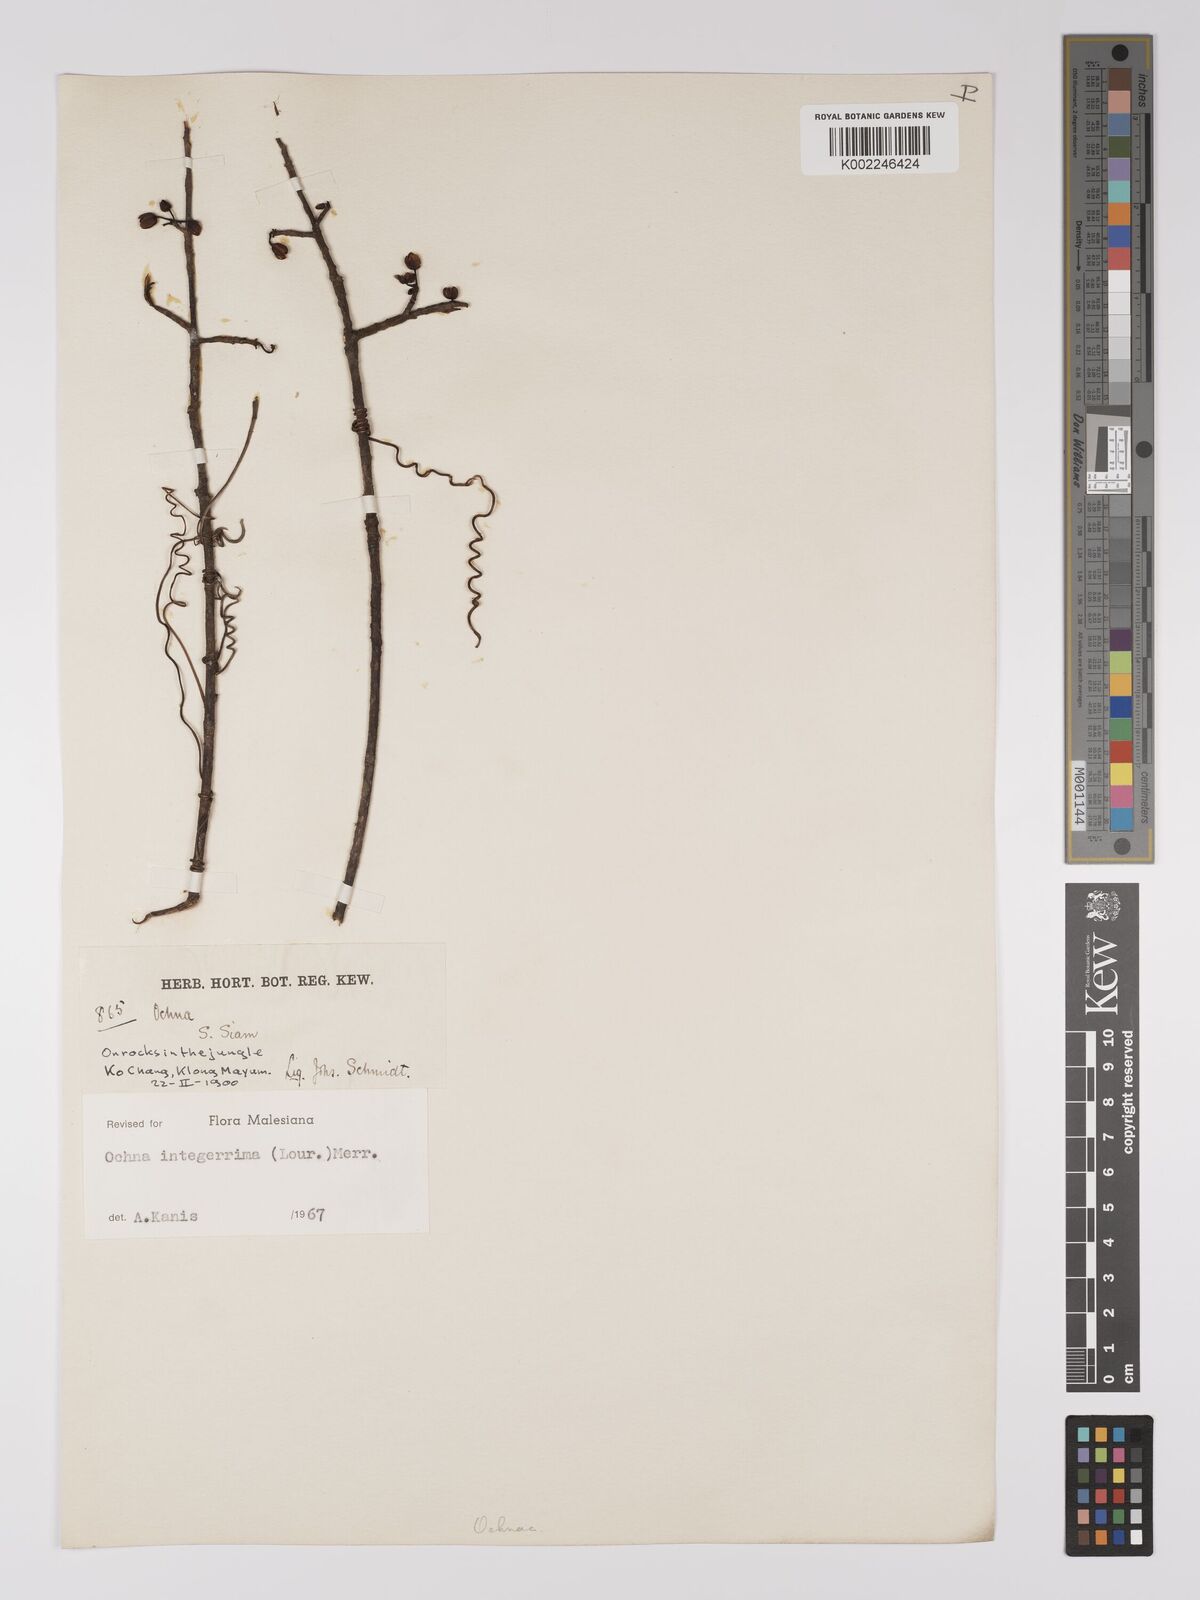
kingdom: Plantae
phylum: Tracheophyta
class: Magnoliopsida
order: Malpighiales
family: Ochnaceae
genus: Ochna
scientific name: Ochna integerrima
